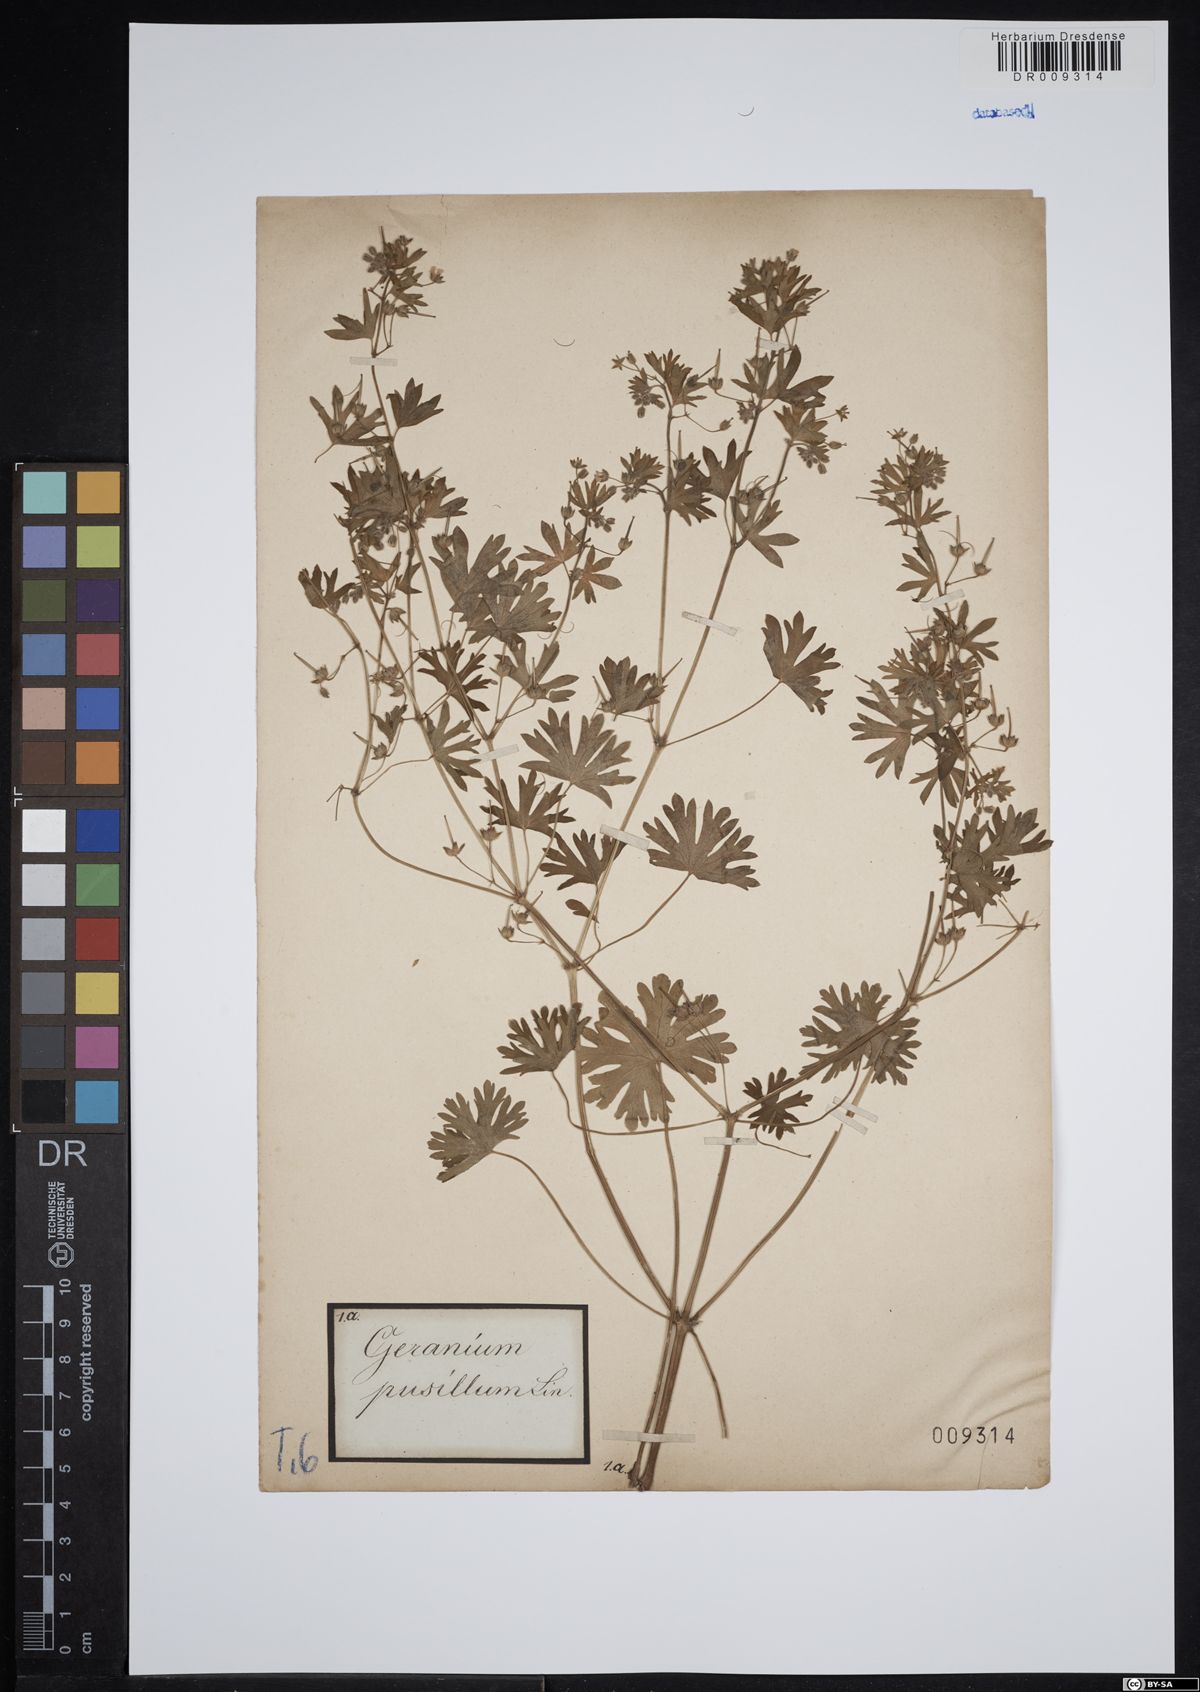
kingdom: Plantae
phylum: Tracheophyta
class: Magnoliopsida
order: Geraniales
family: Geraniaceae
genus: Geranium
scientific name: Geranium pusillum
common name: Small geranium
